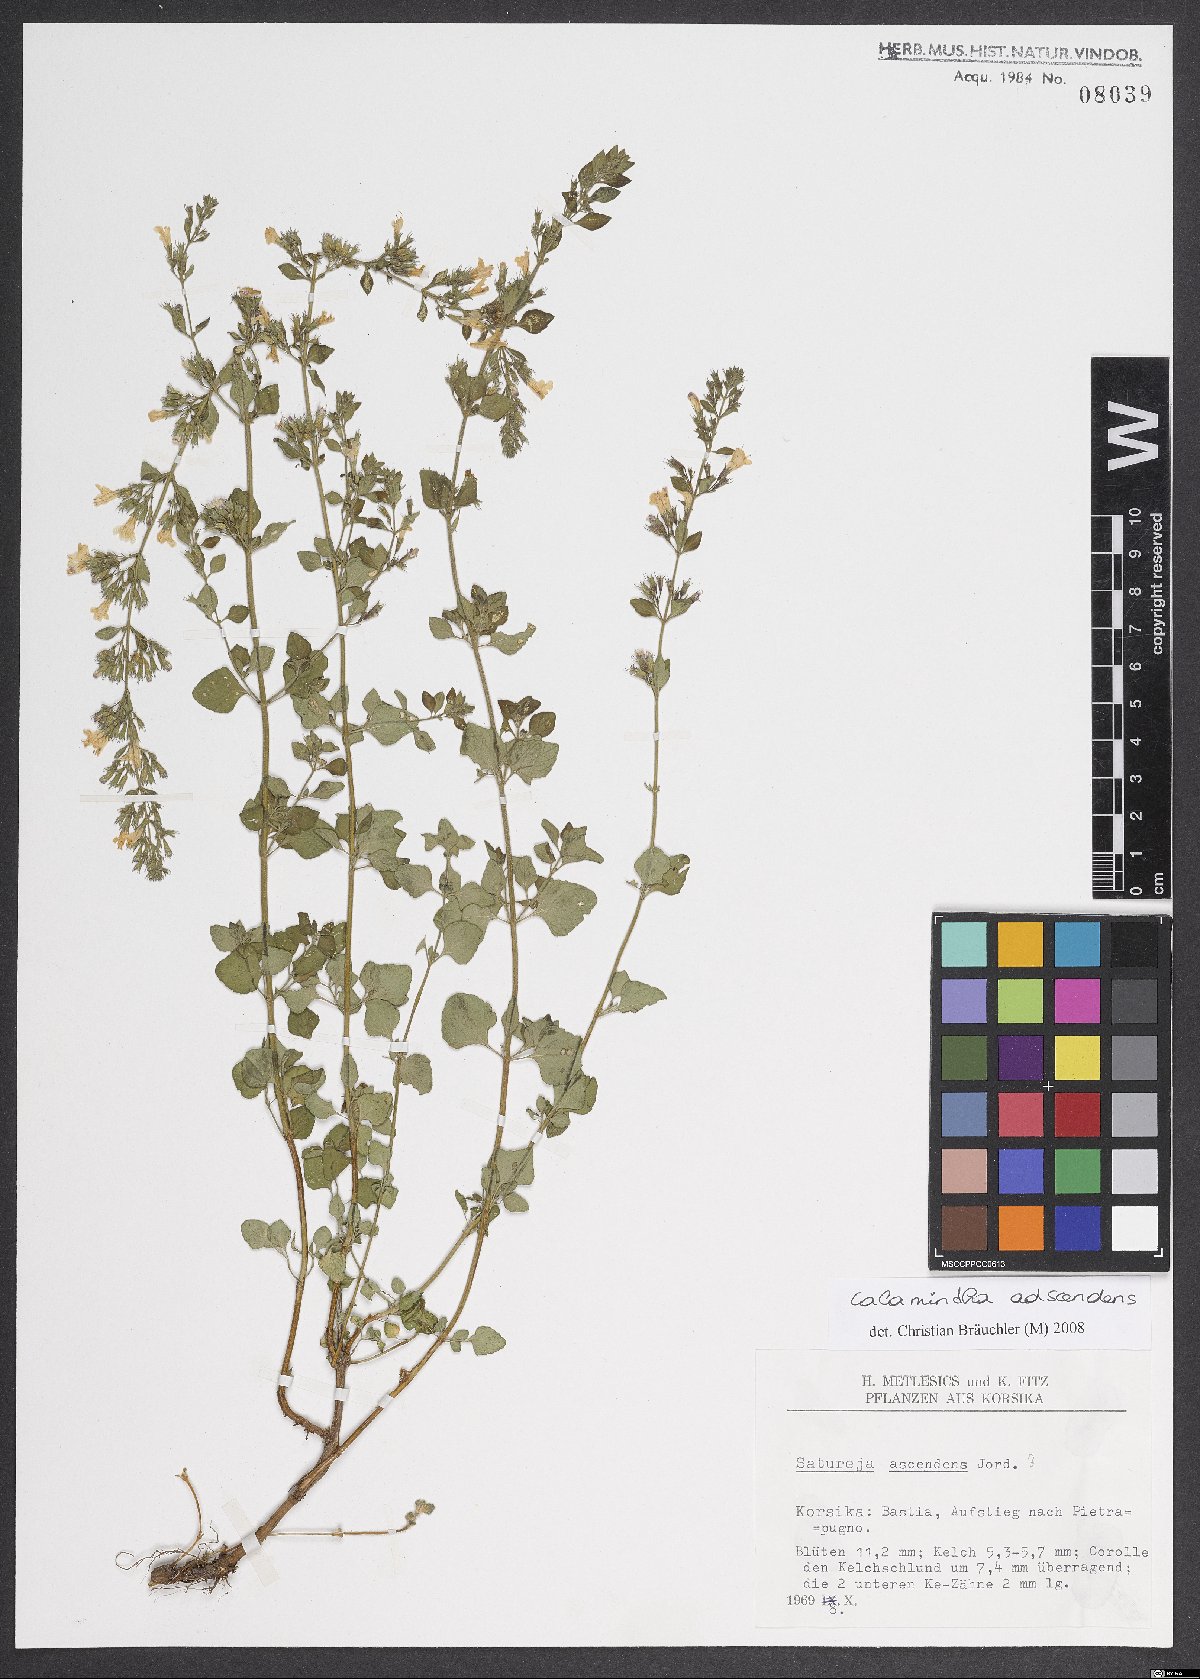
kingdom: Plantae
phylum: Tracheophyta
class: Magnoliopsida
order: Lamiales
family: Lamiaceae
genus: Clinopodium
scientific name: Clinopodium menthifolium
